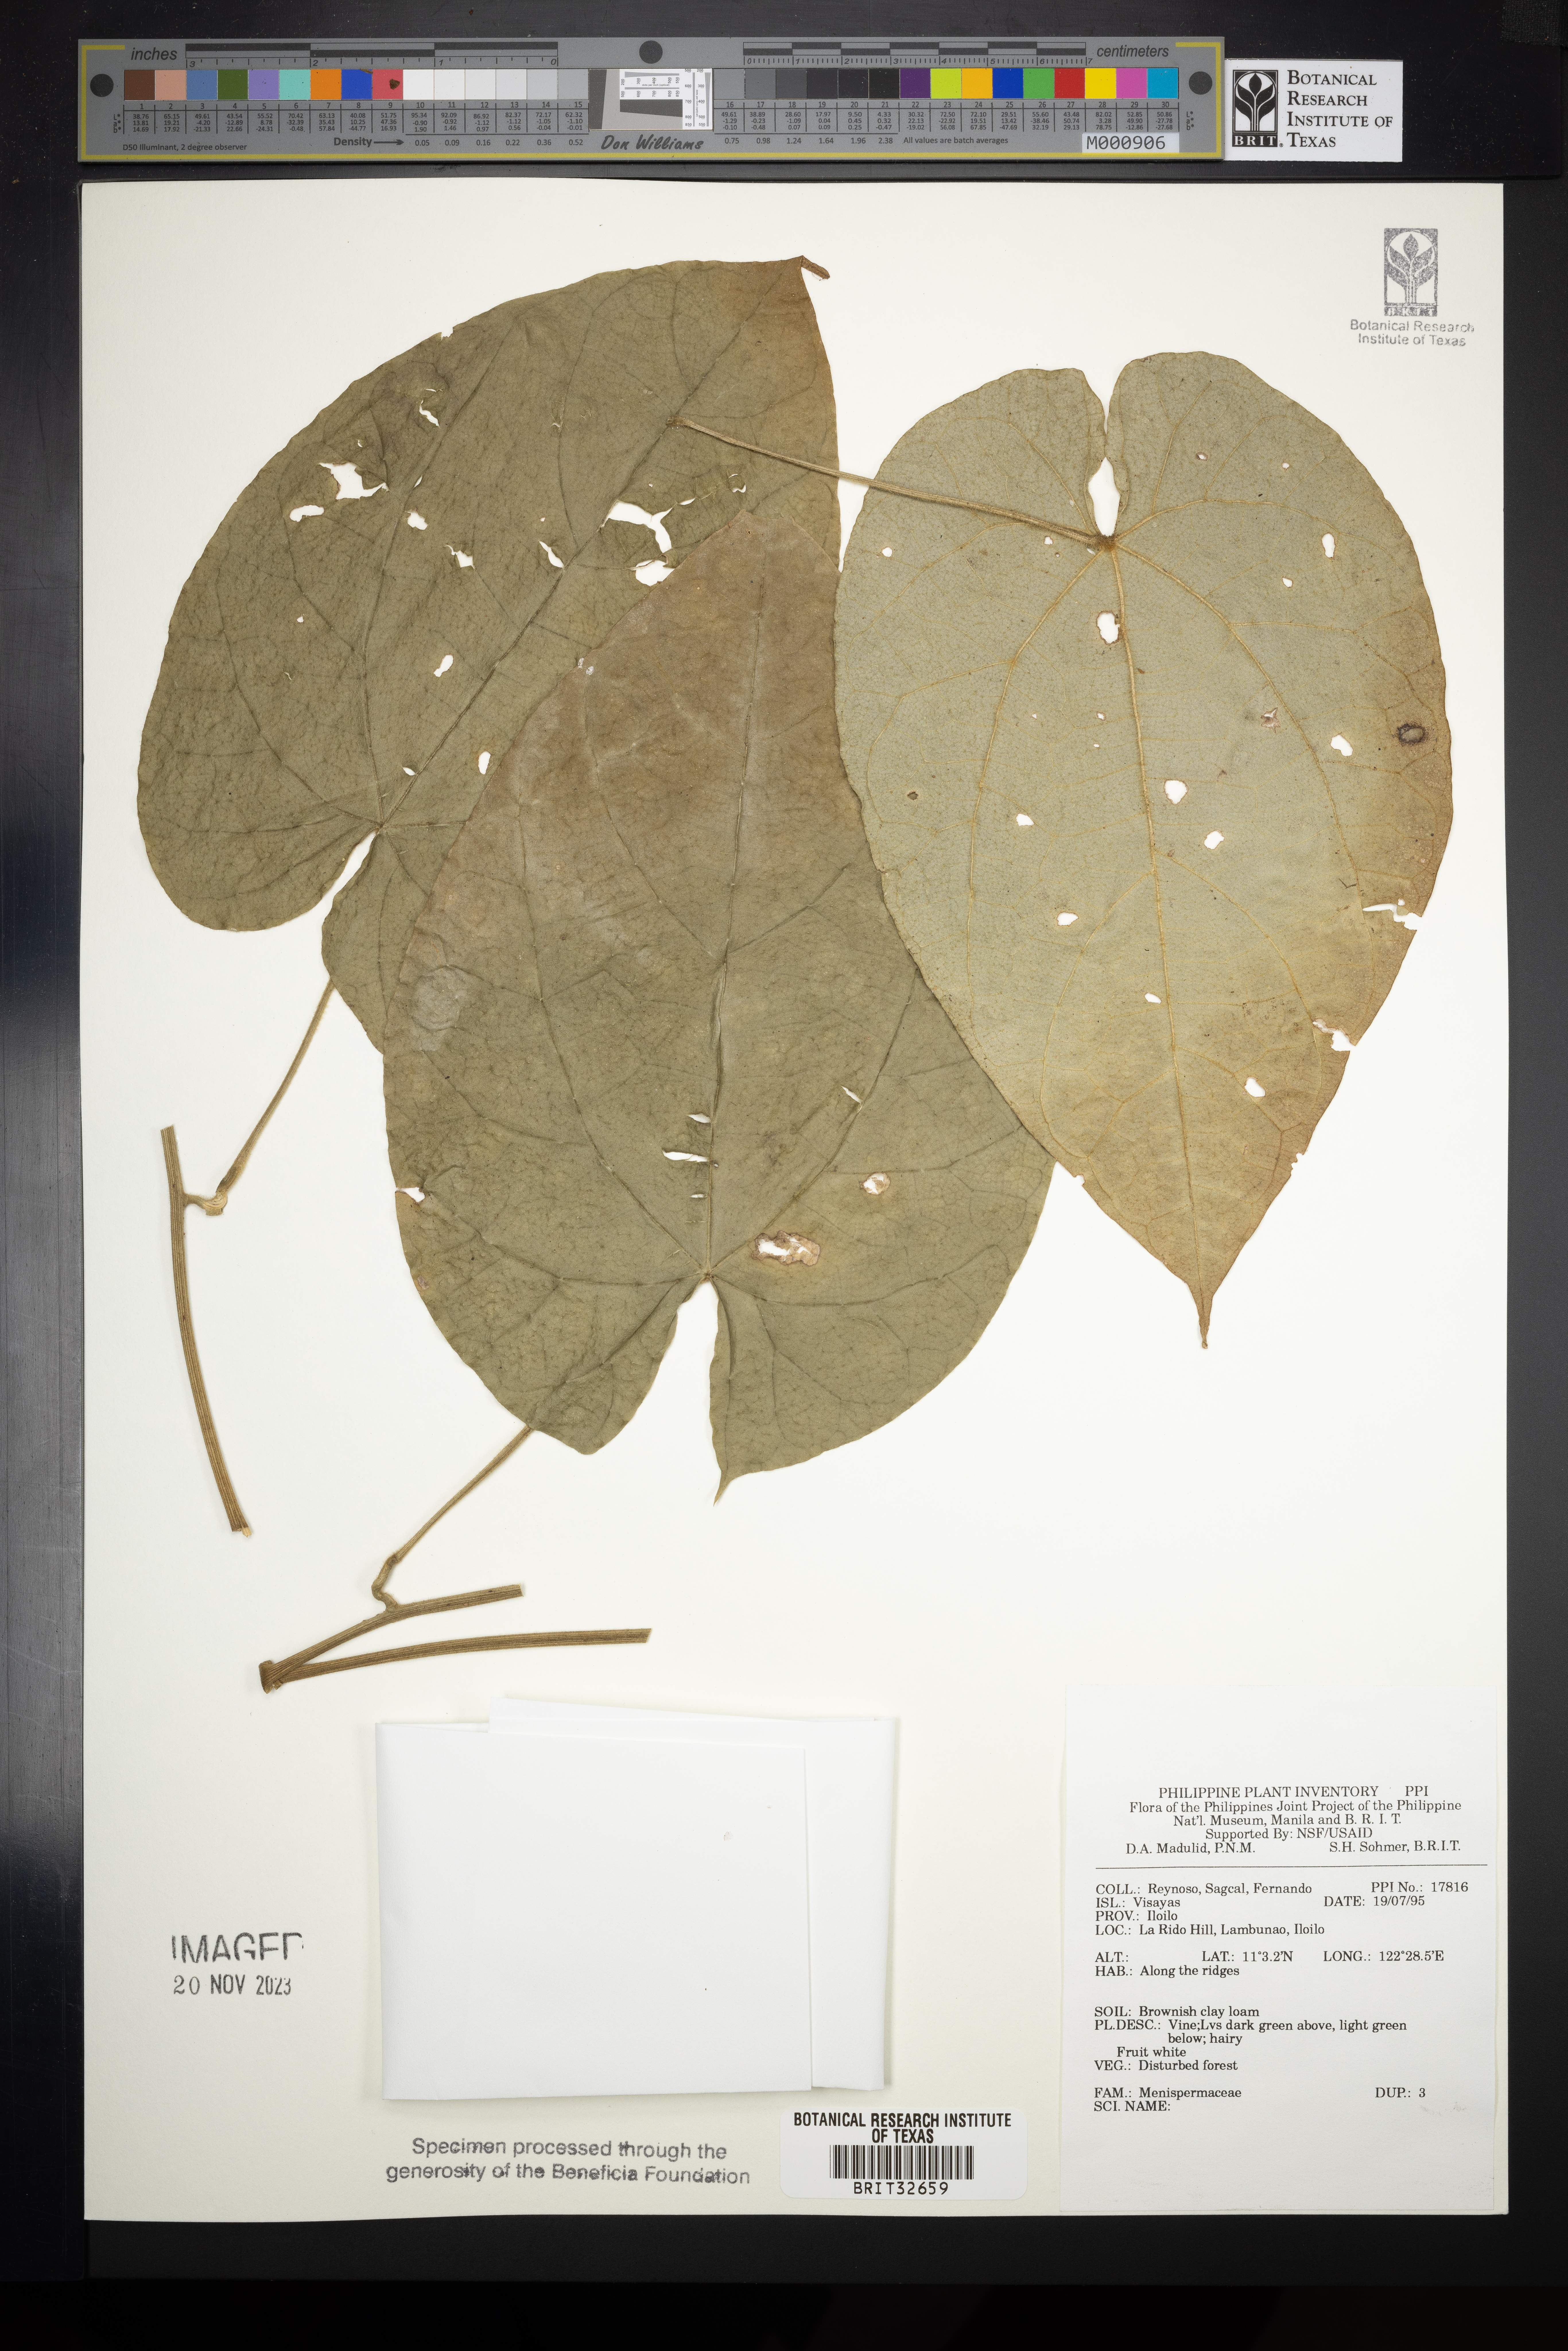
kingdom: Plantae
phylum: Tracheophyta
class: Magnoliopsida
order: Ranunculales
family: Menispermaceae
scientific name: Menispermaceae
